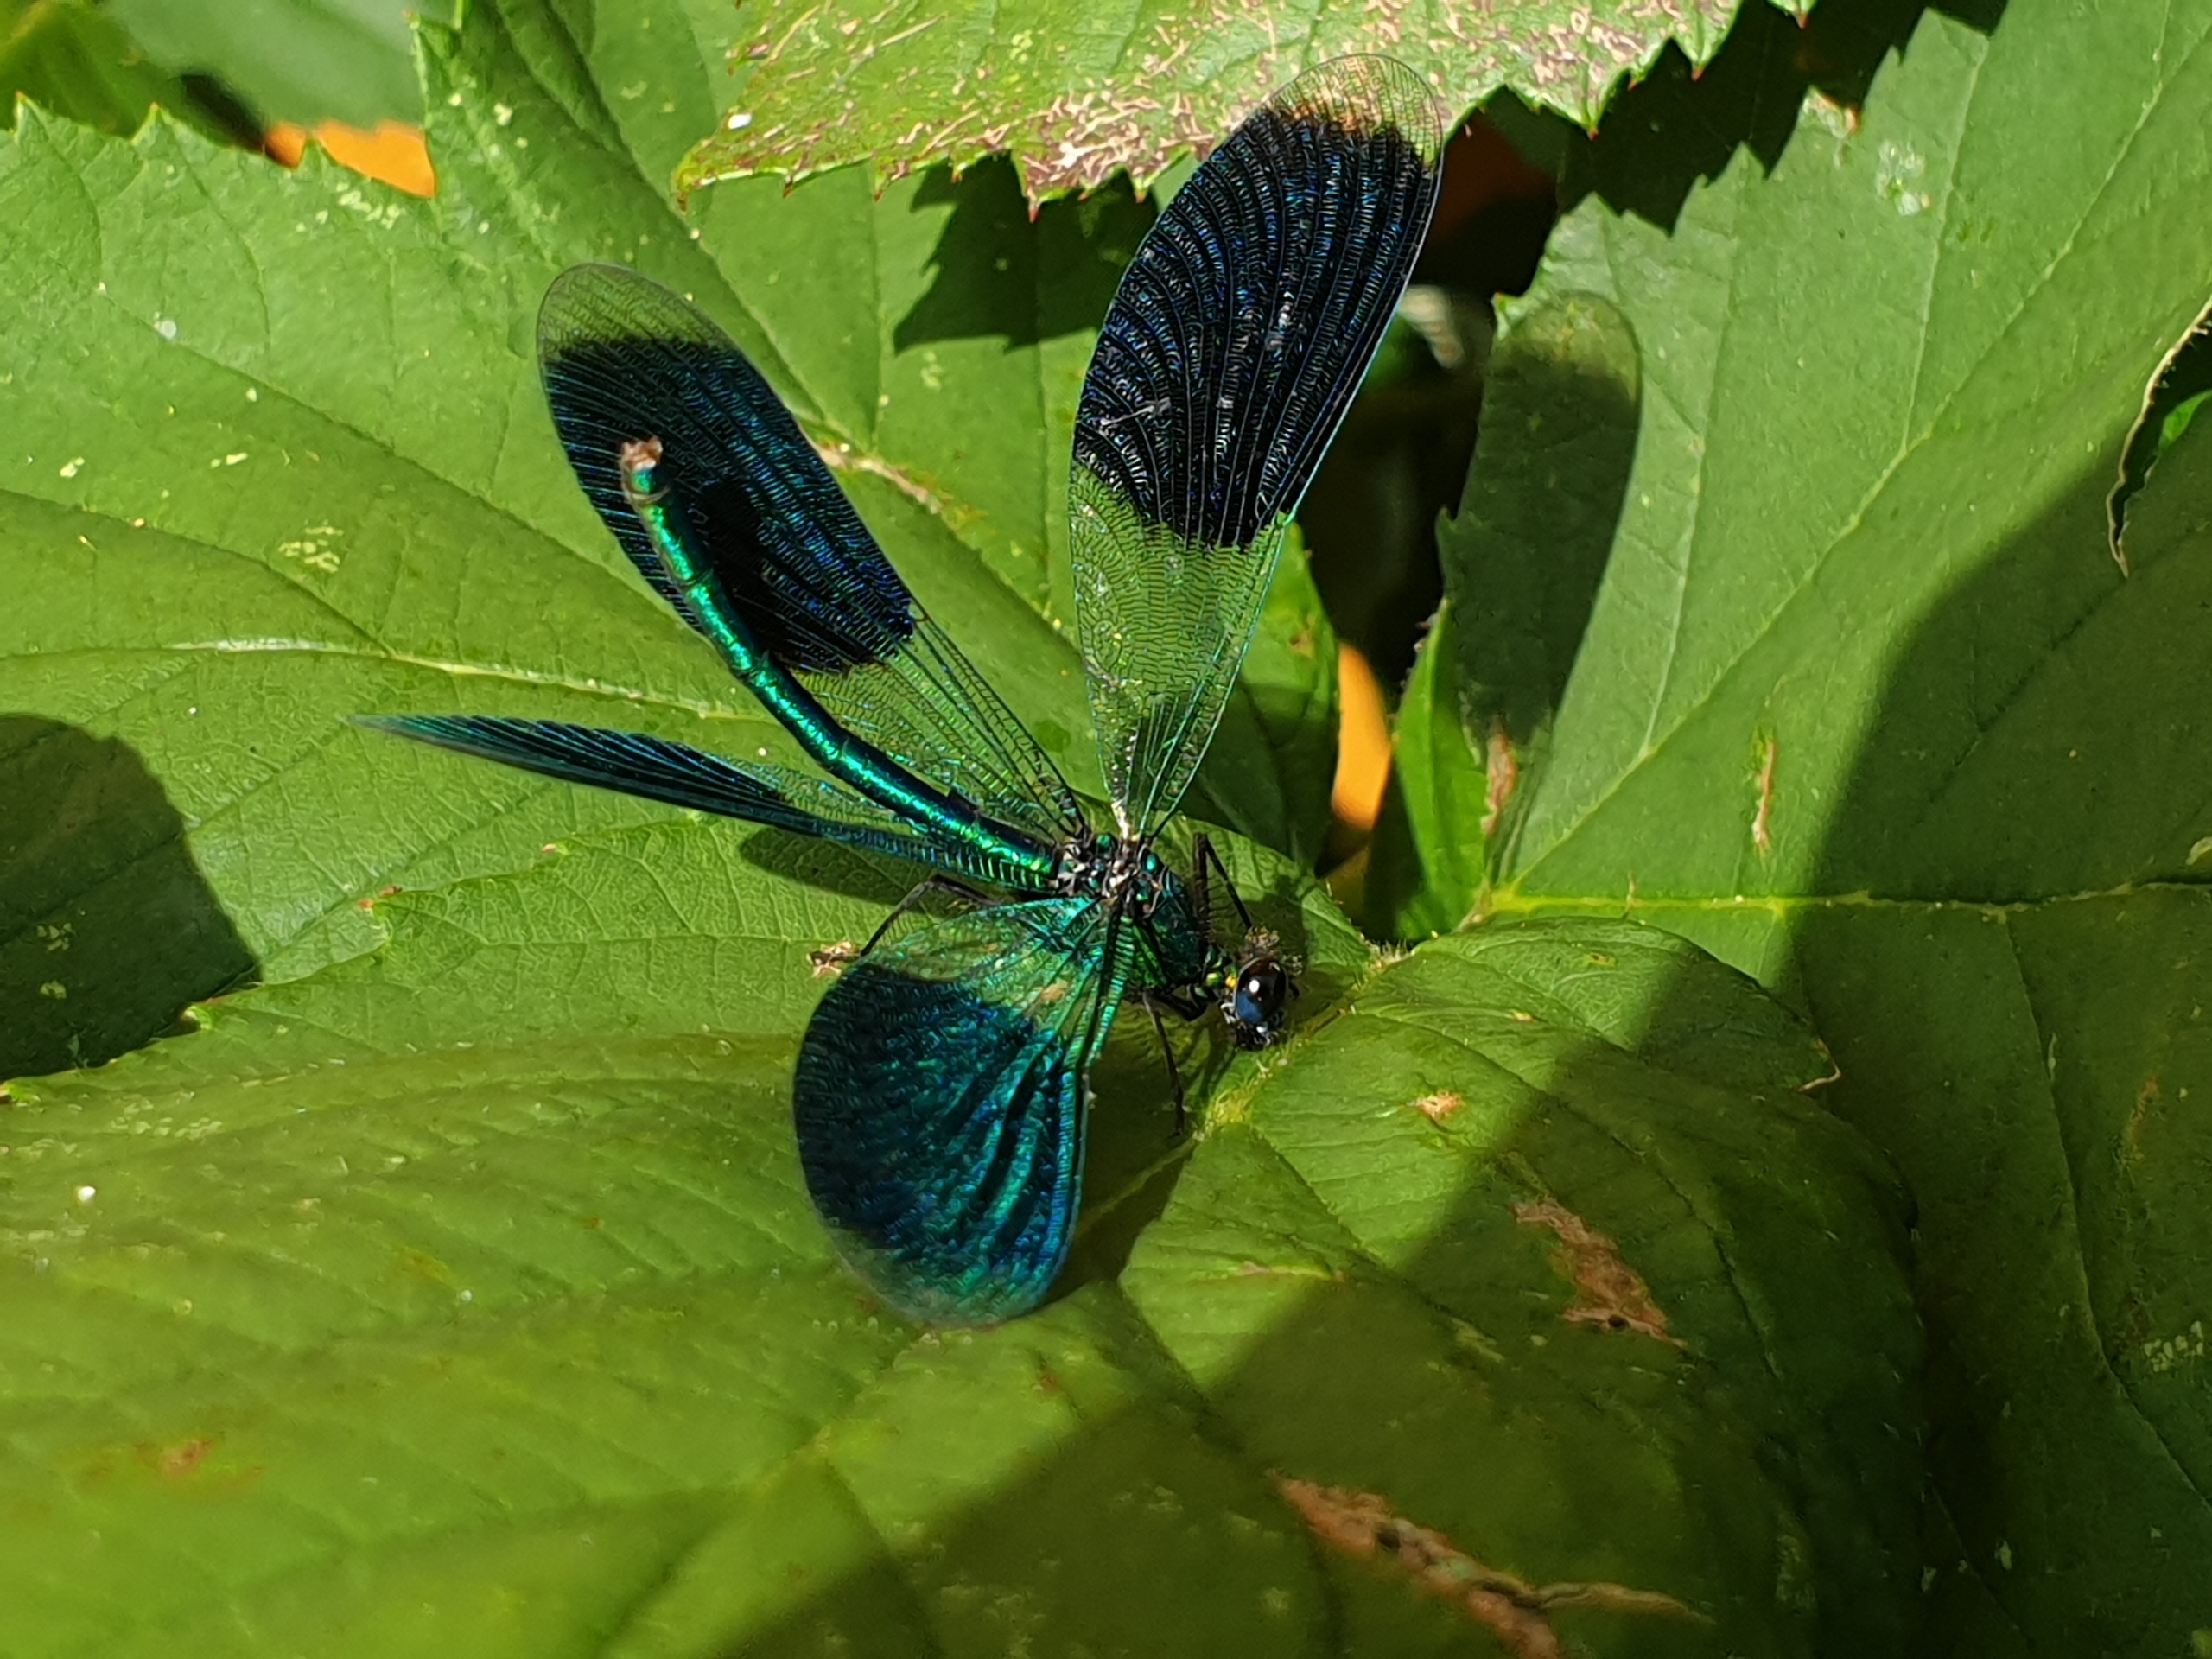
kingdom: Animalia
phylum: Arthropoda
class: Insecta
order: Odonata
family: Calopterygidae
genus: Calopteryx
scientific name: Calopteryx splendens
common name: Blåbåndet pragtvandnymfe
